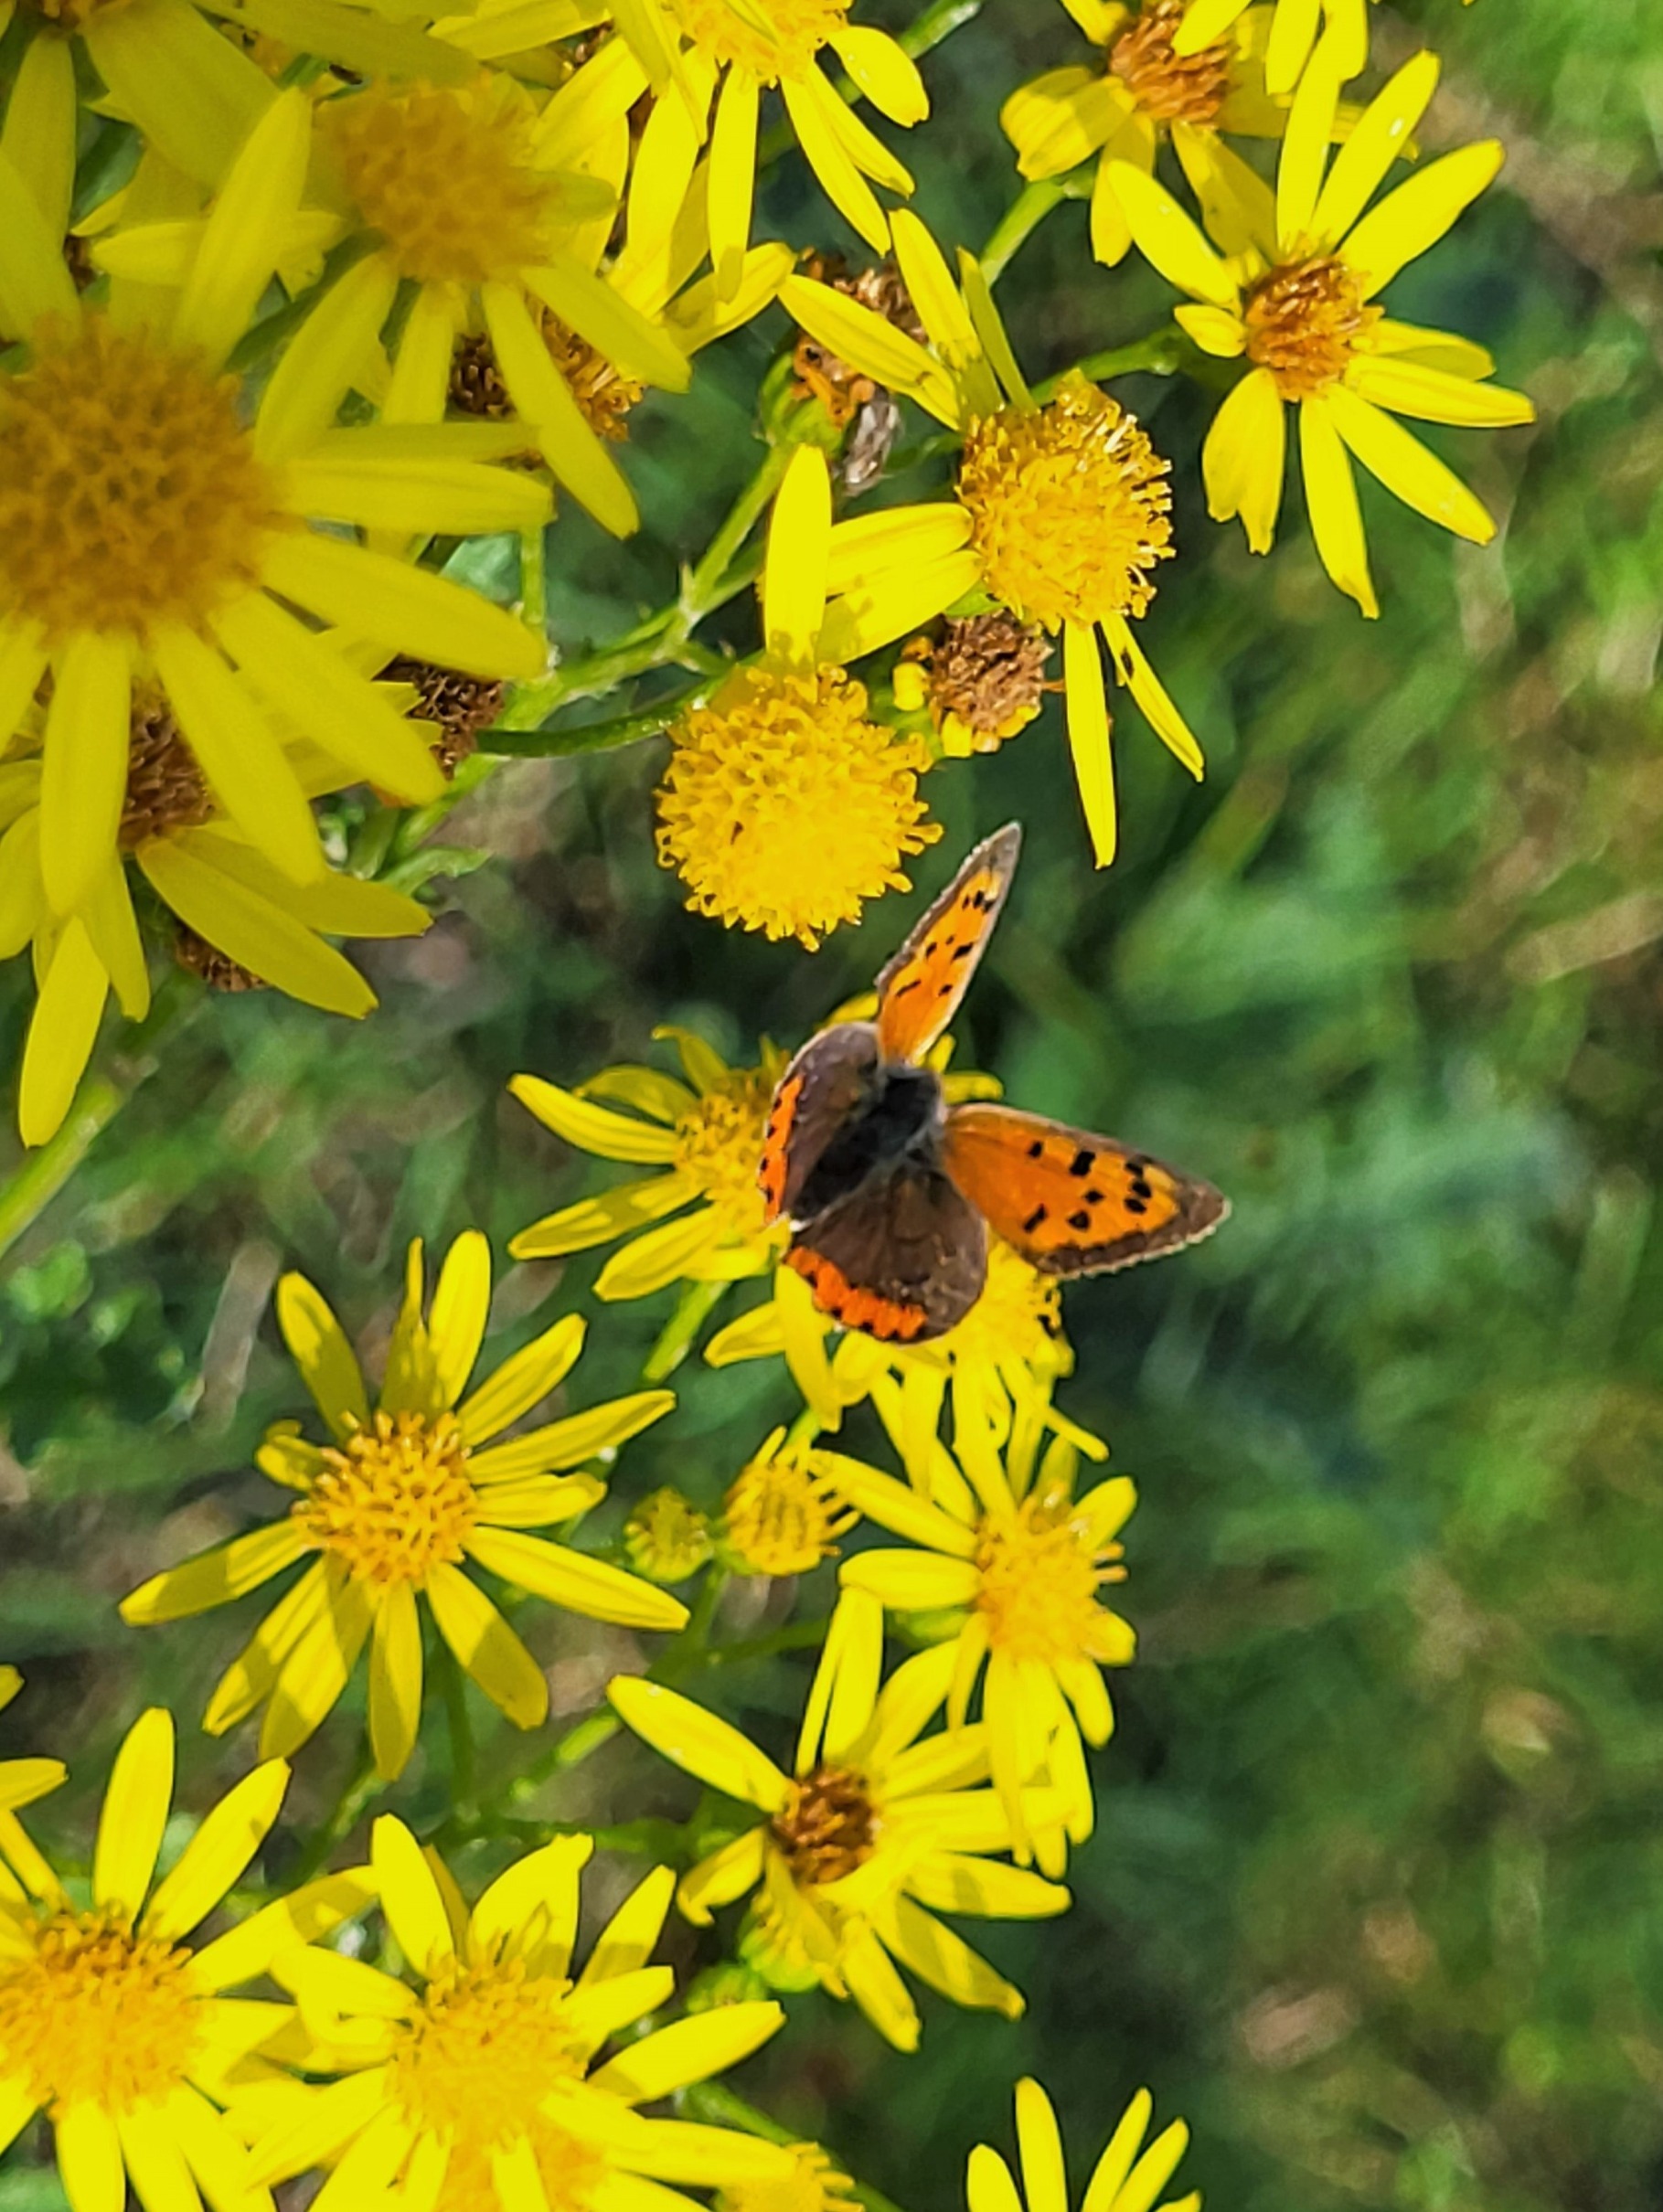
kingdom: Animalia
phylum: Arthropoda
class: Insecta
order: Lepidoptera
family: Lycaenidae
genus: Lycaena
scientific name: Lycaena phlaeas
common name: Lille ildfugl
